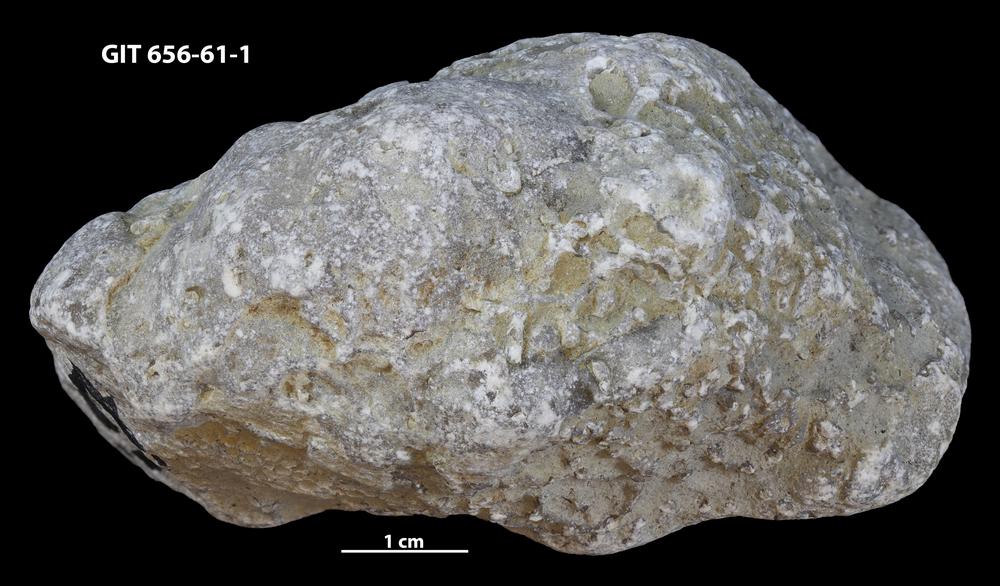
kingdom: Animalia
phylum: Porifera
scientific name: Porifera
